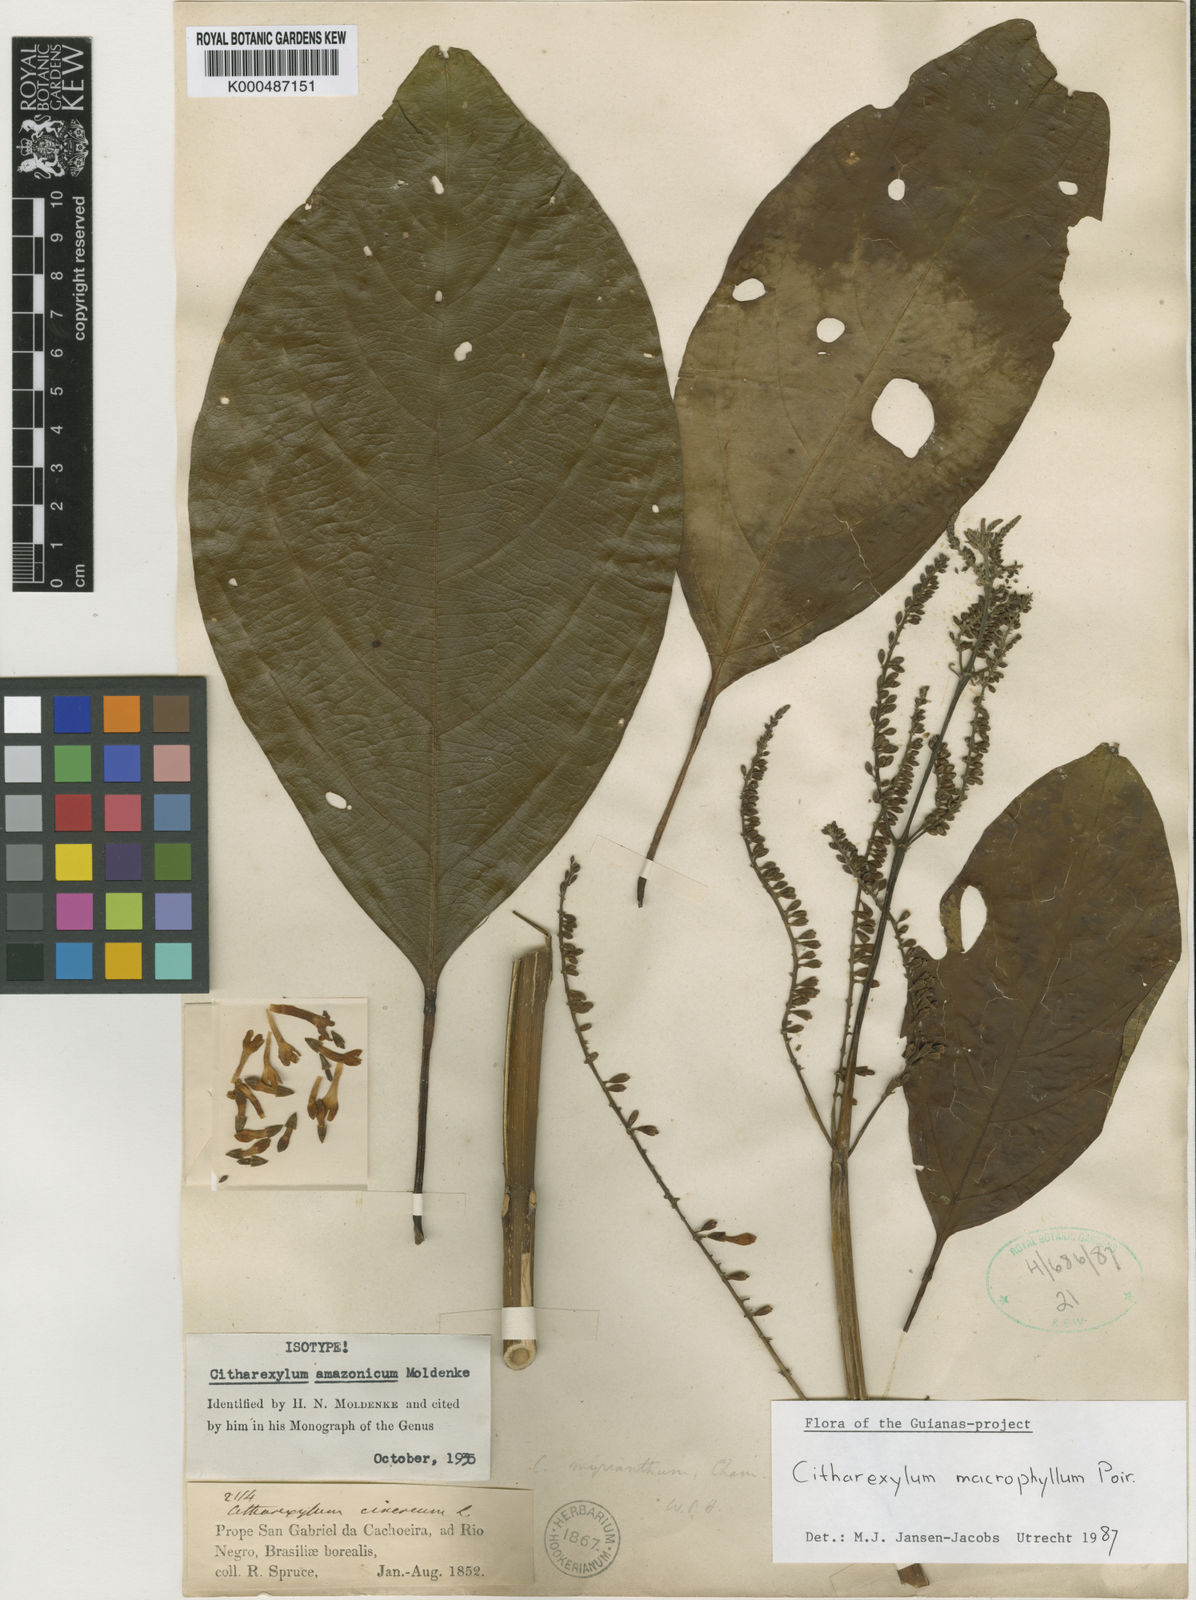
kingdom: Plantae
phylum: Tracheophyta
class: Magnoliopsida
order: Lamiales
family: Verbenaceae
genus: Citharexylum
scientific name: Citharexylum macrochlamys
